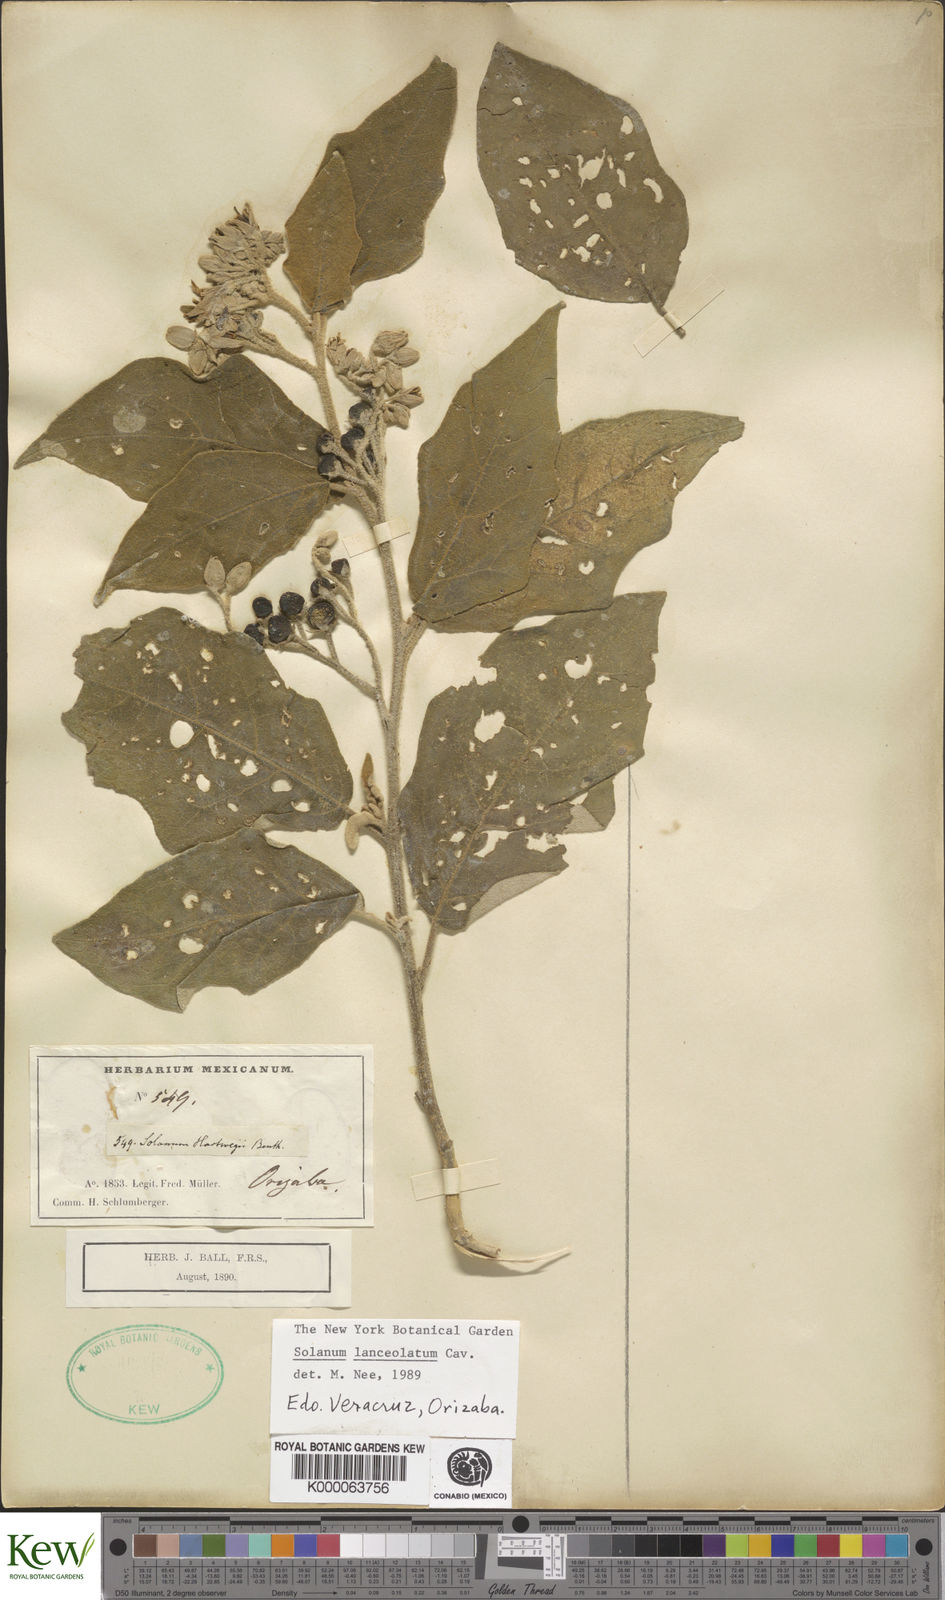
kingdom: Plantae
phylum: Tracheophyta
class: Magnoliopsida
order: Solanales
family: Solanaceae
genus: Solanum
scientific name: Solanum lanceolatum
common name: Orangeberry nightshade
